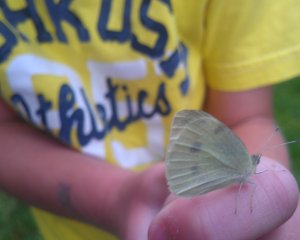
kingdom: Animalia
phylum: Arthropoda
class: Insecta
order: Lepidoptera
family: Pieridae
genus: Pieris
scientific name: Pieris rapae
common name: Cabbage White
